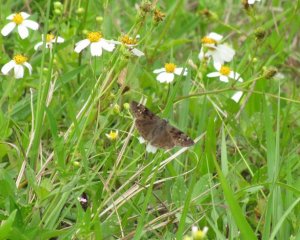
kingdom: Animalia
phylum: Arthropoda
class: Insecta
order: Lepidoptera
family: Hesperiidae
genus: Gesta
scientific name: Gesta
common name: Horace's Duskywing
